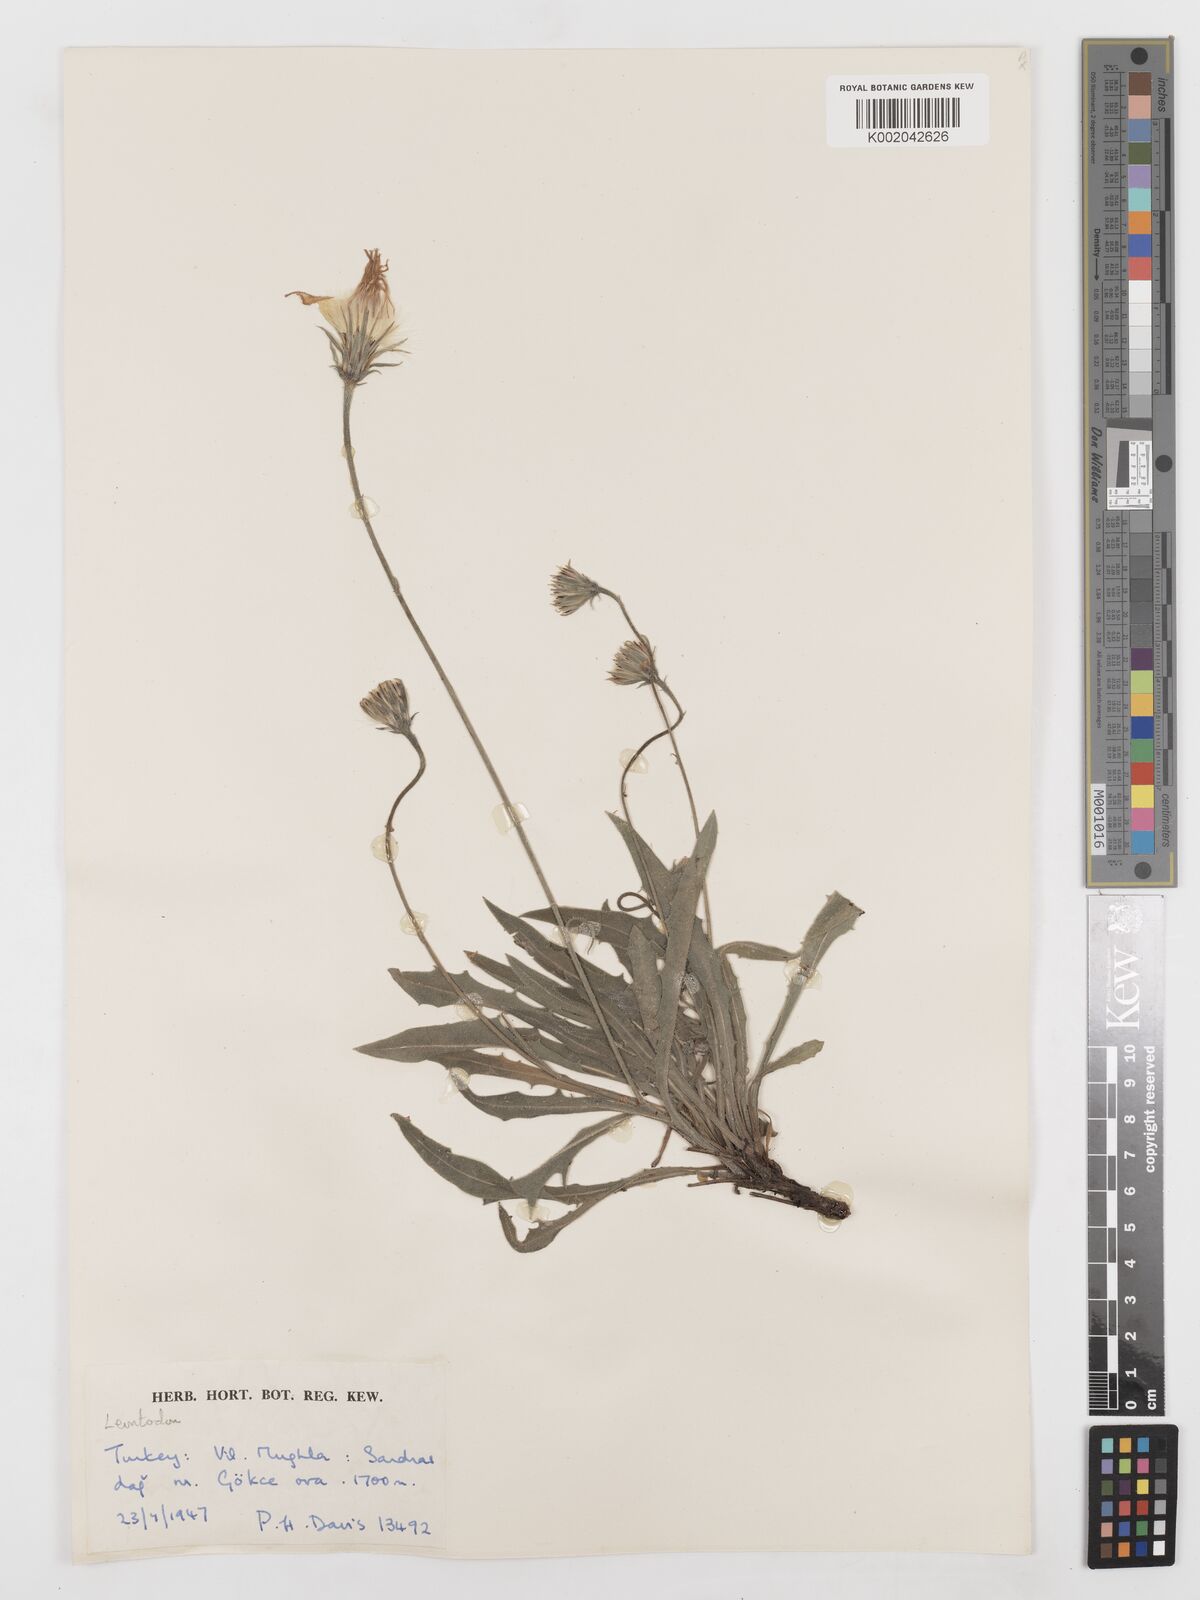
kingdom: Plantae
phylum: Tracheophyta
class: Magnoliopsida
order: Asterales
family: Asteraceae
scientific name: Asteraceae
